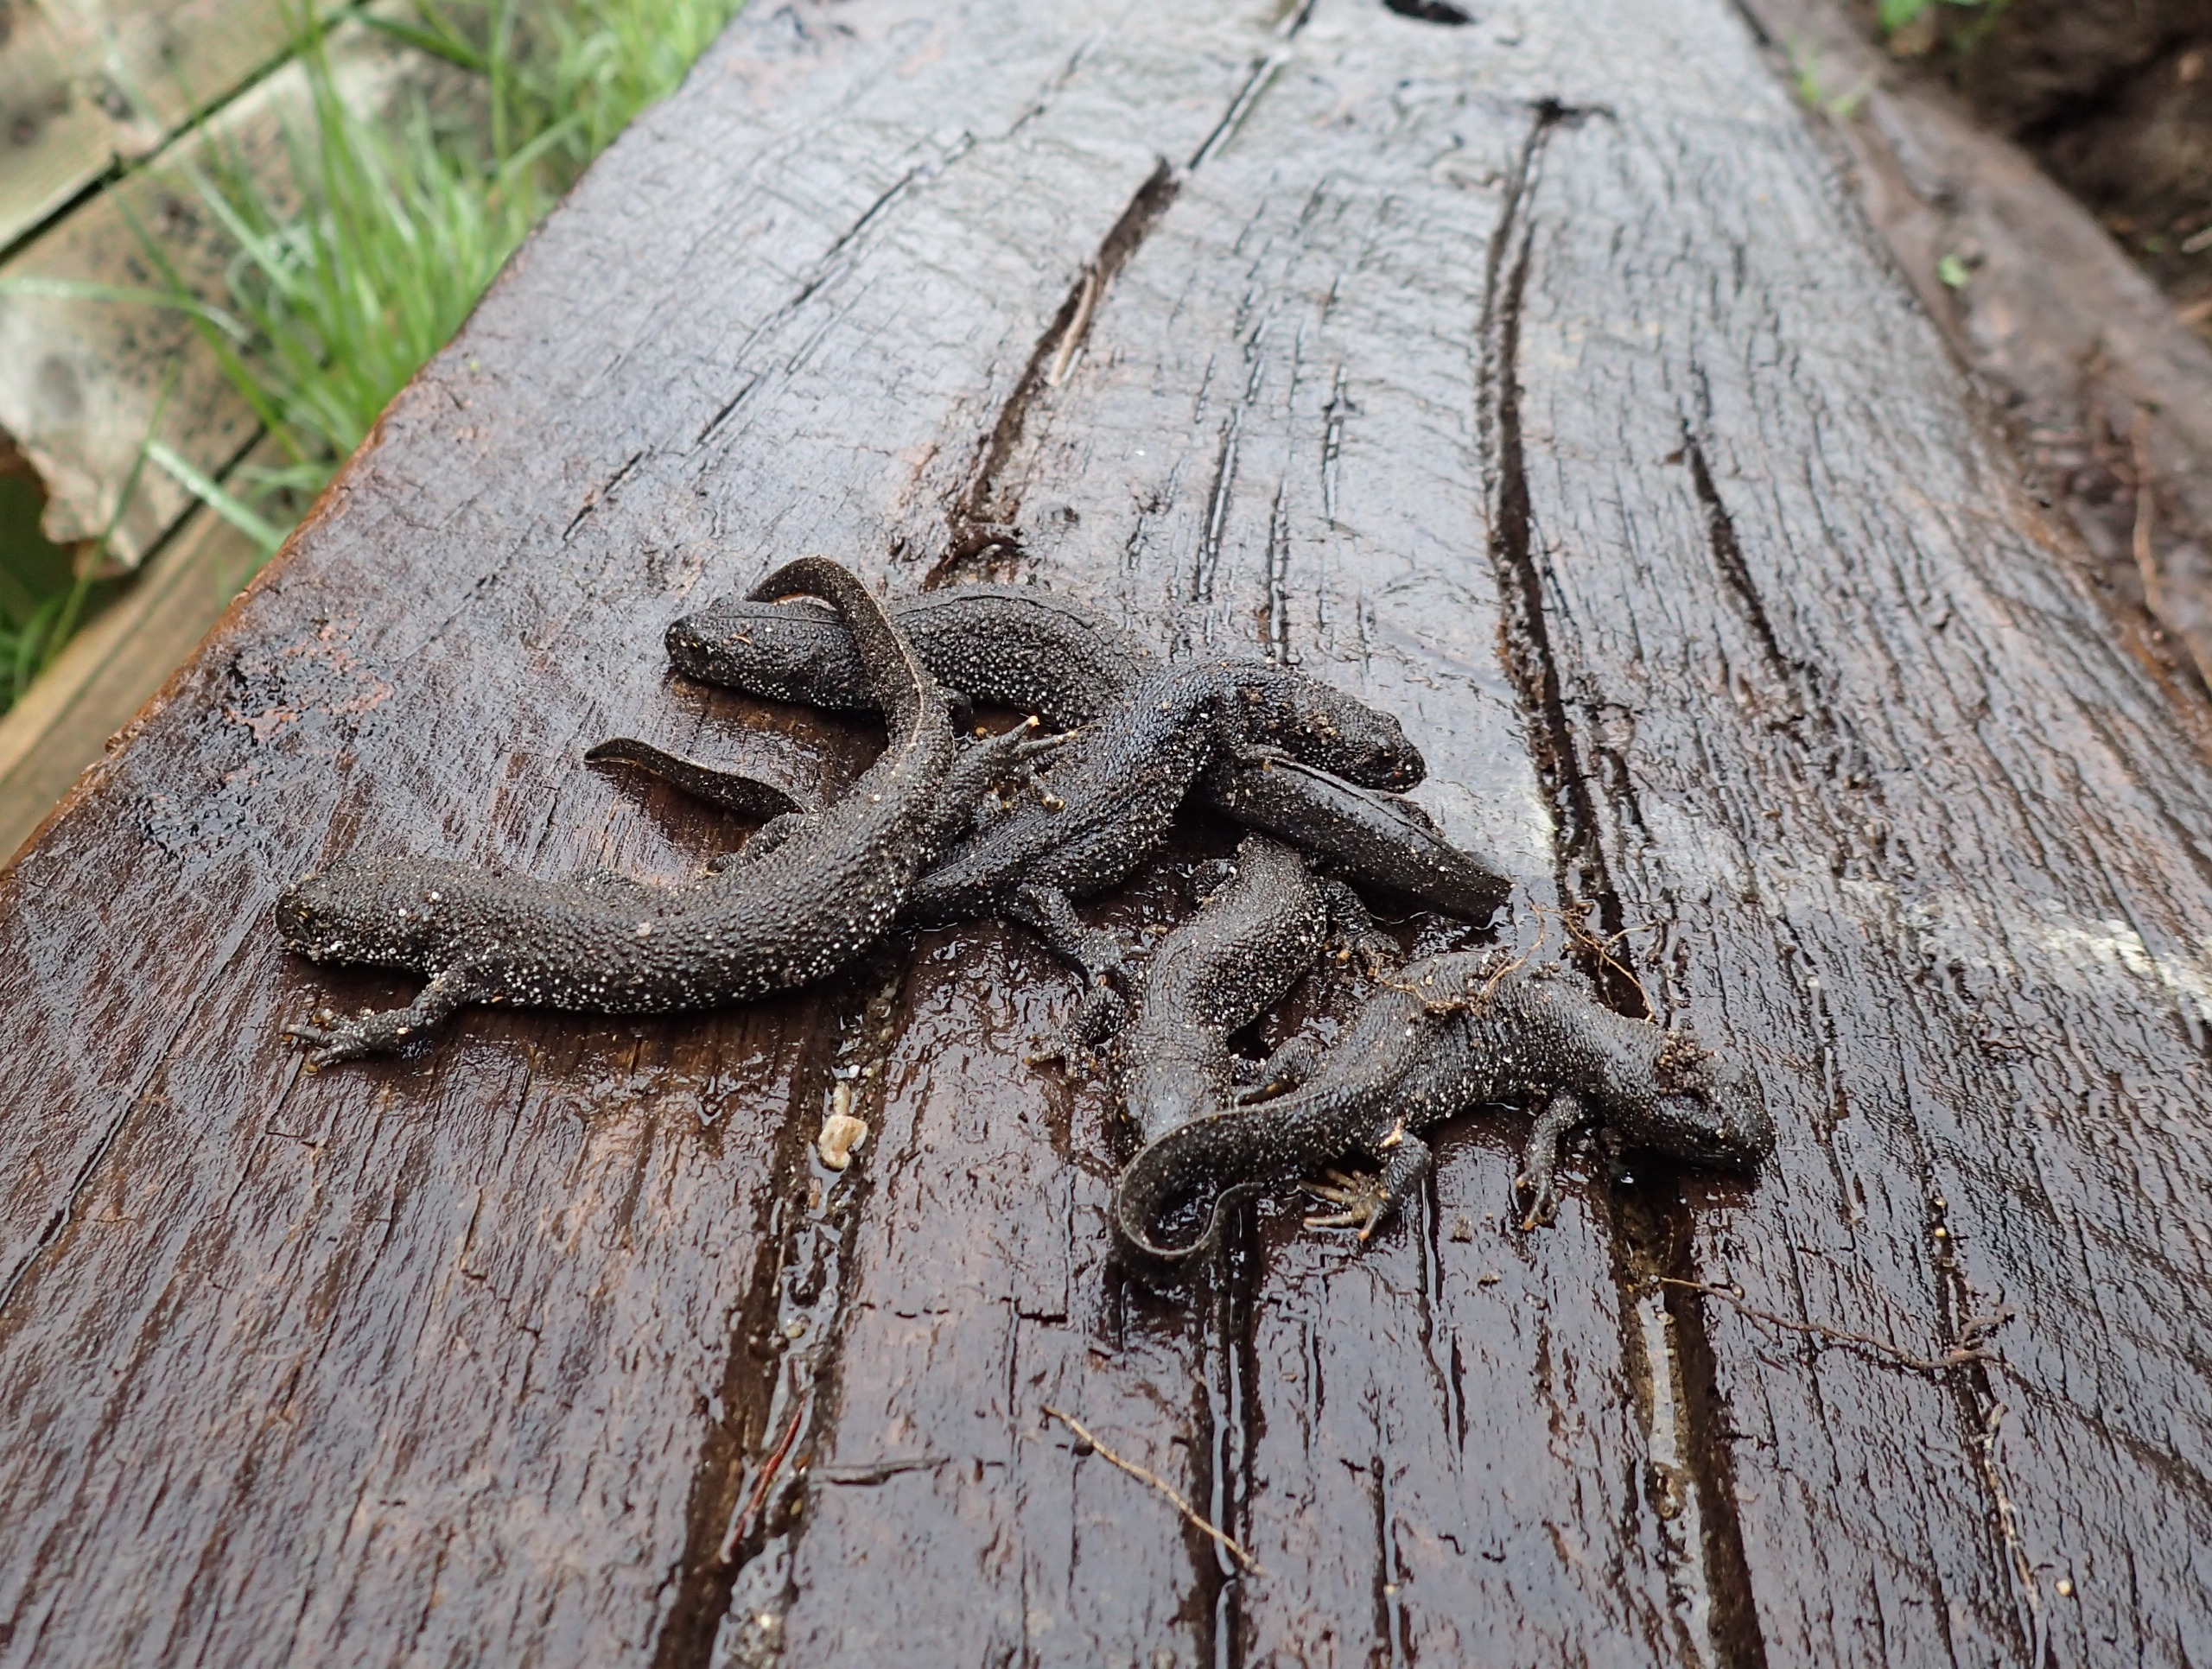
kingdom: Animalia
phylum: Chordata
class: Amphibia
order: Caudata
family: Salamandridae
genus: Triturus
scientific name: Triturus cristatus
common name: Stor vandsalamander
